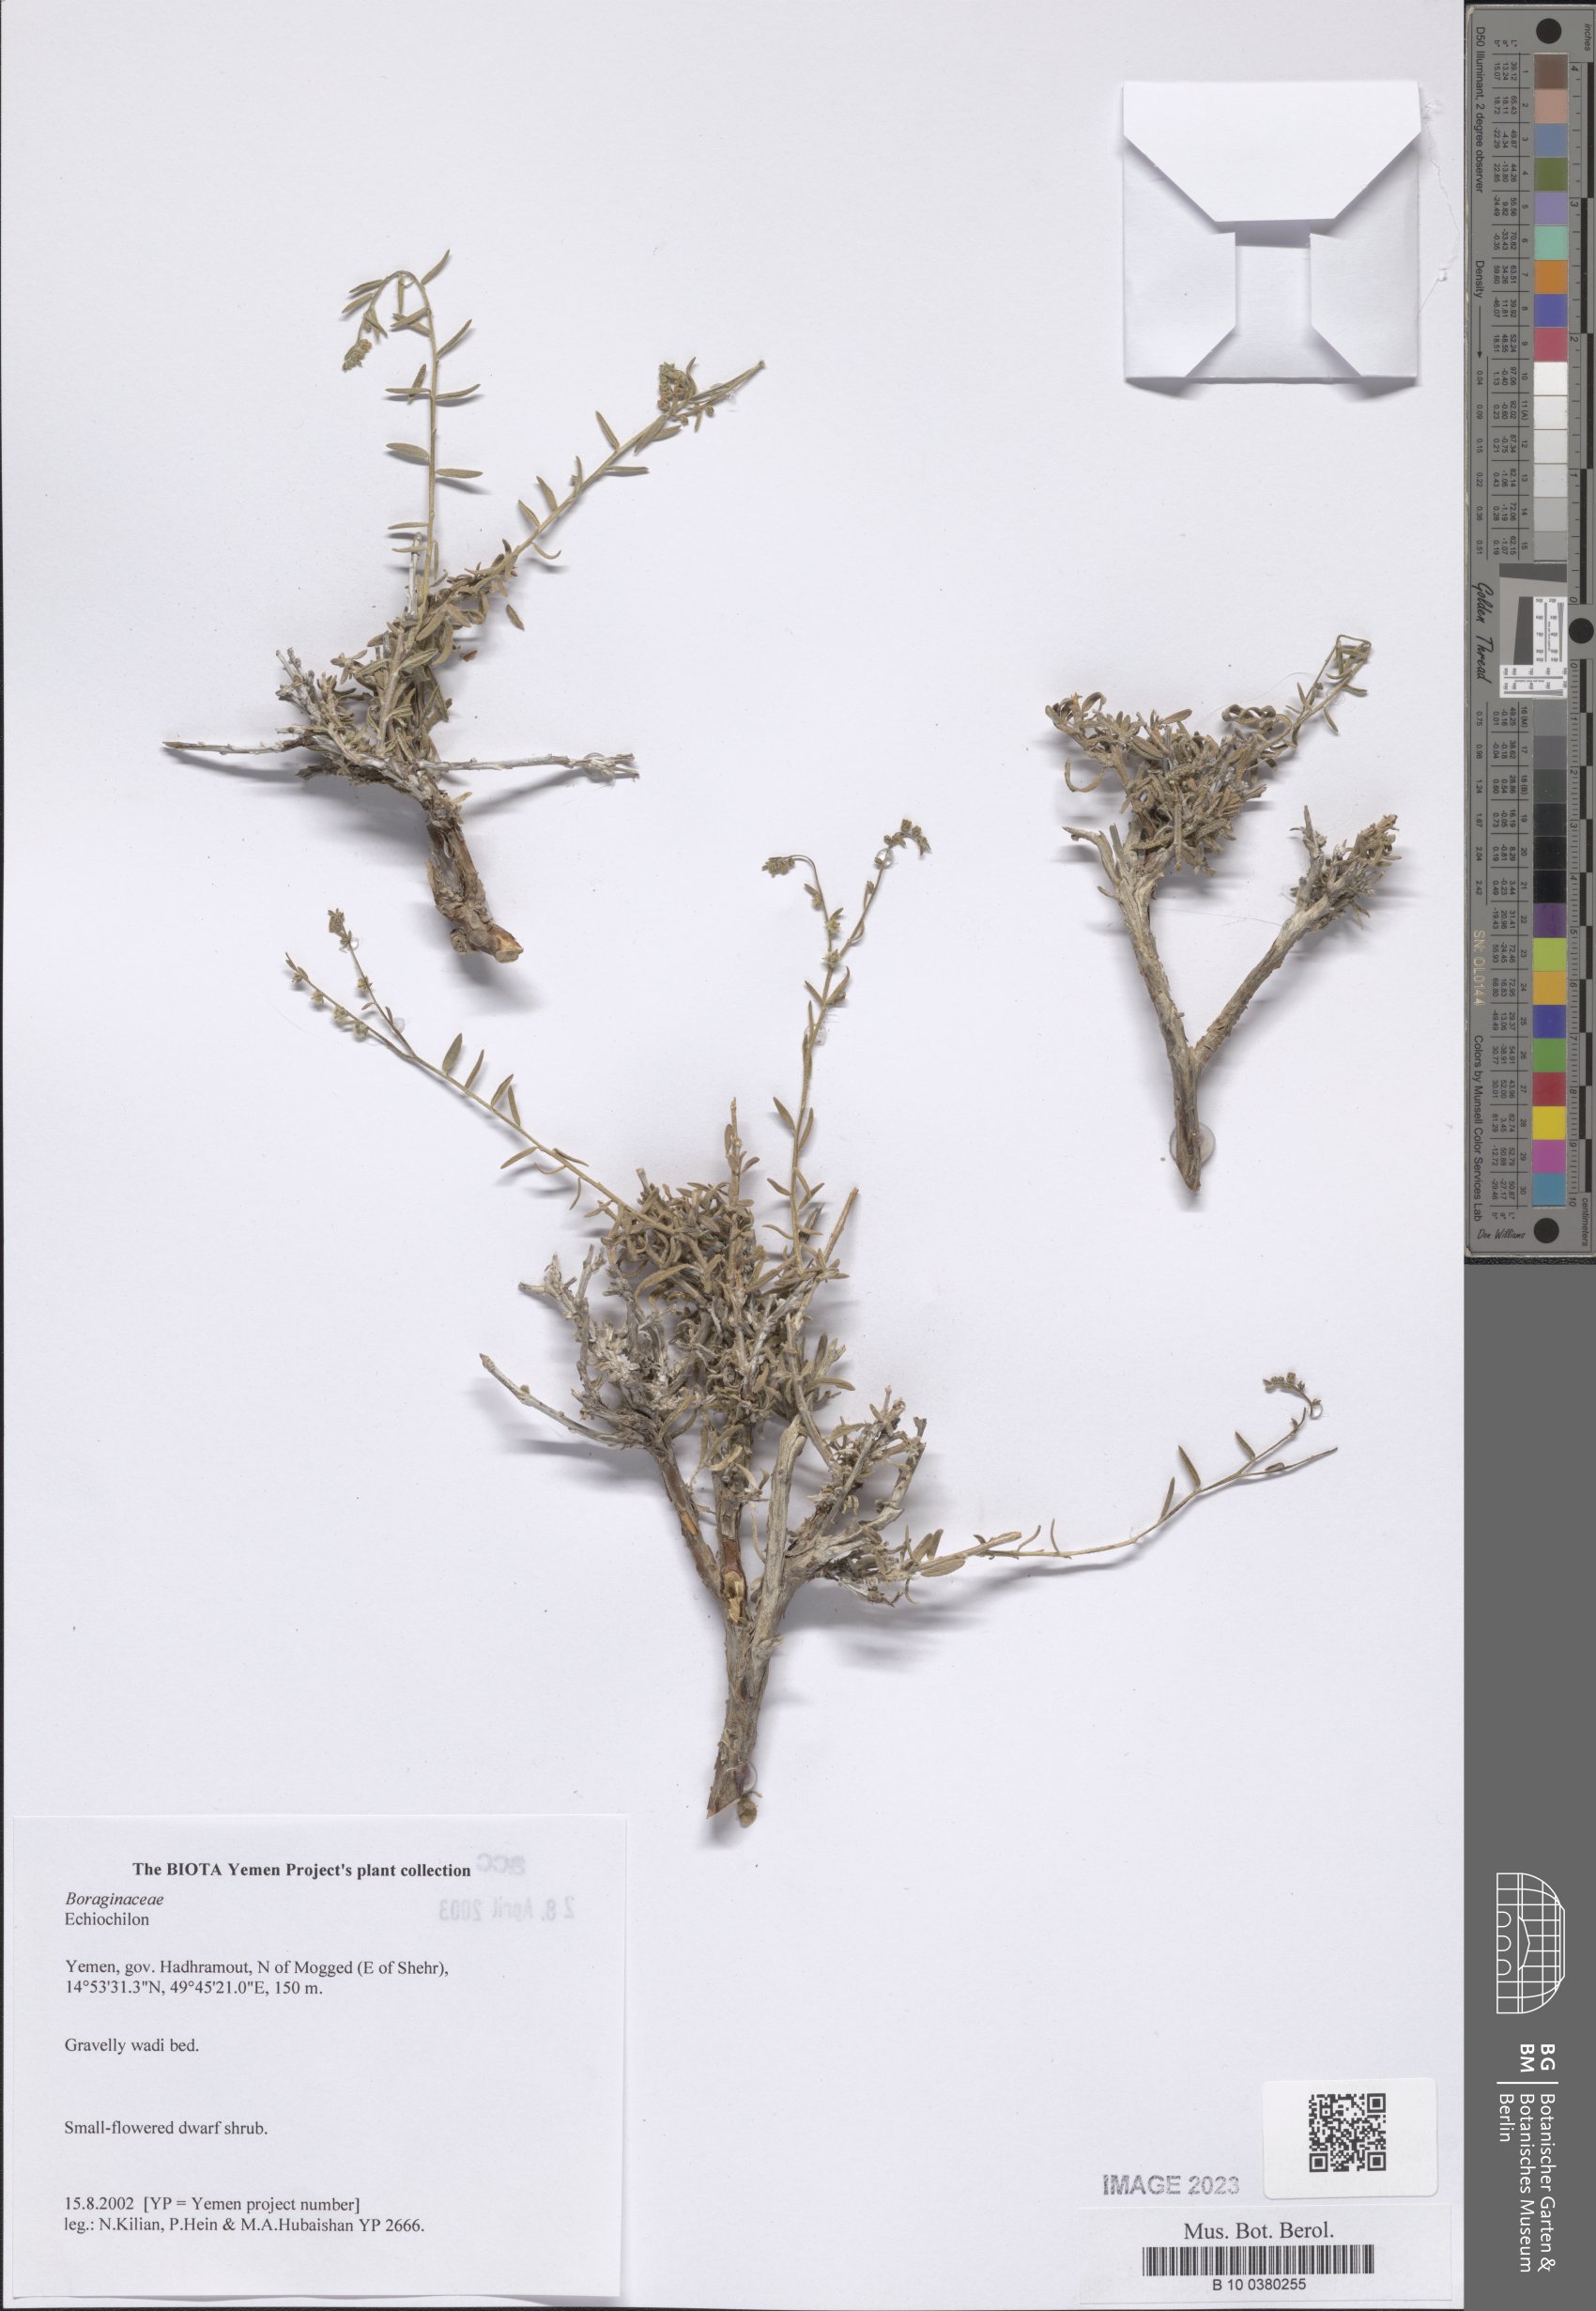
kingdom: Plantae
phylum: Tracheophyta
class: Magnoliopsida
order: Boraginales
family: Boraginaceae
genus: Echiochilon
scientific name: Echiochilon
